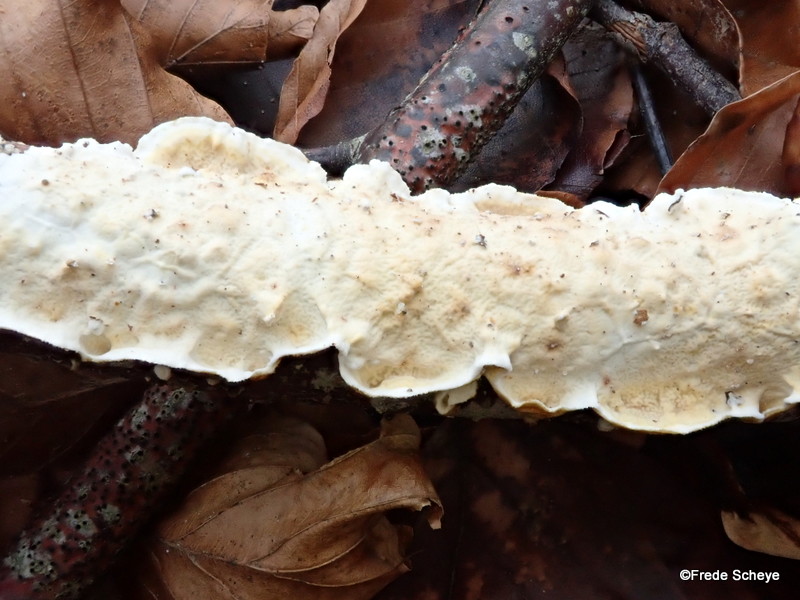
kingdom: Fungi
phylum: Basidiomycota
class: Agaricomycetes
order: Polyporales
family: Irpicaceae
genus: Byssomerulius
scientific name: Byssomerulius corium
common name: læder-åresvamp
